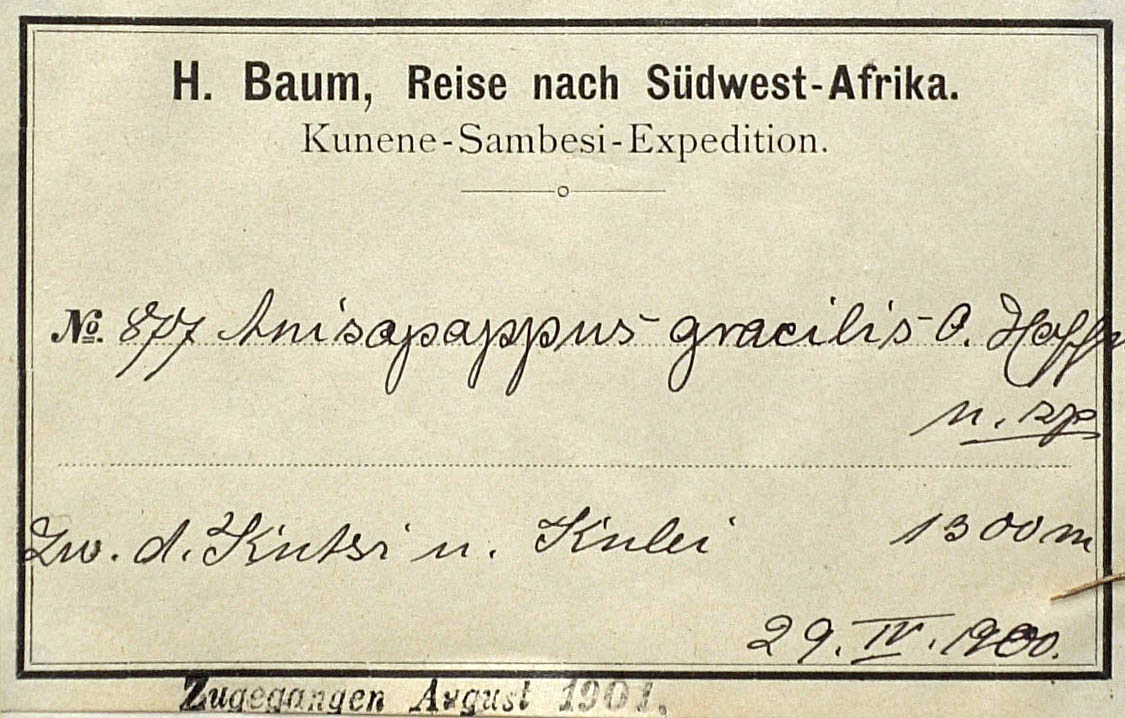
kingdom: Plantae
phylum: Tracheophyta
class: Magnoliopsida
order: Asterales
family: Asteraceae
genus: Anisopappus
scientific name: Anisopappus africanus
